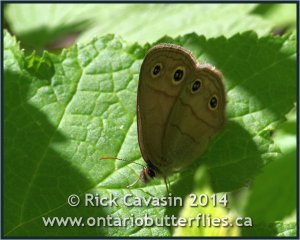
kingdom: Animalia
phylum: Arthropoda
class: Insecta
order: Lepidoptera
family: Nymphalidae
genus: Euptychia
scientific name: Euptychia cymela
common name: Little Wood Satyr
